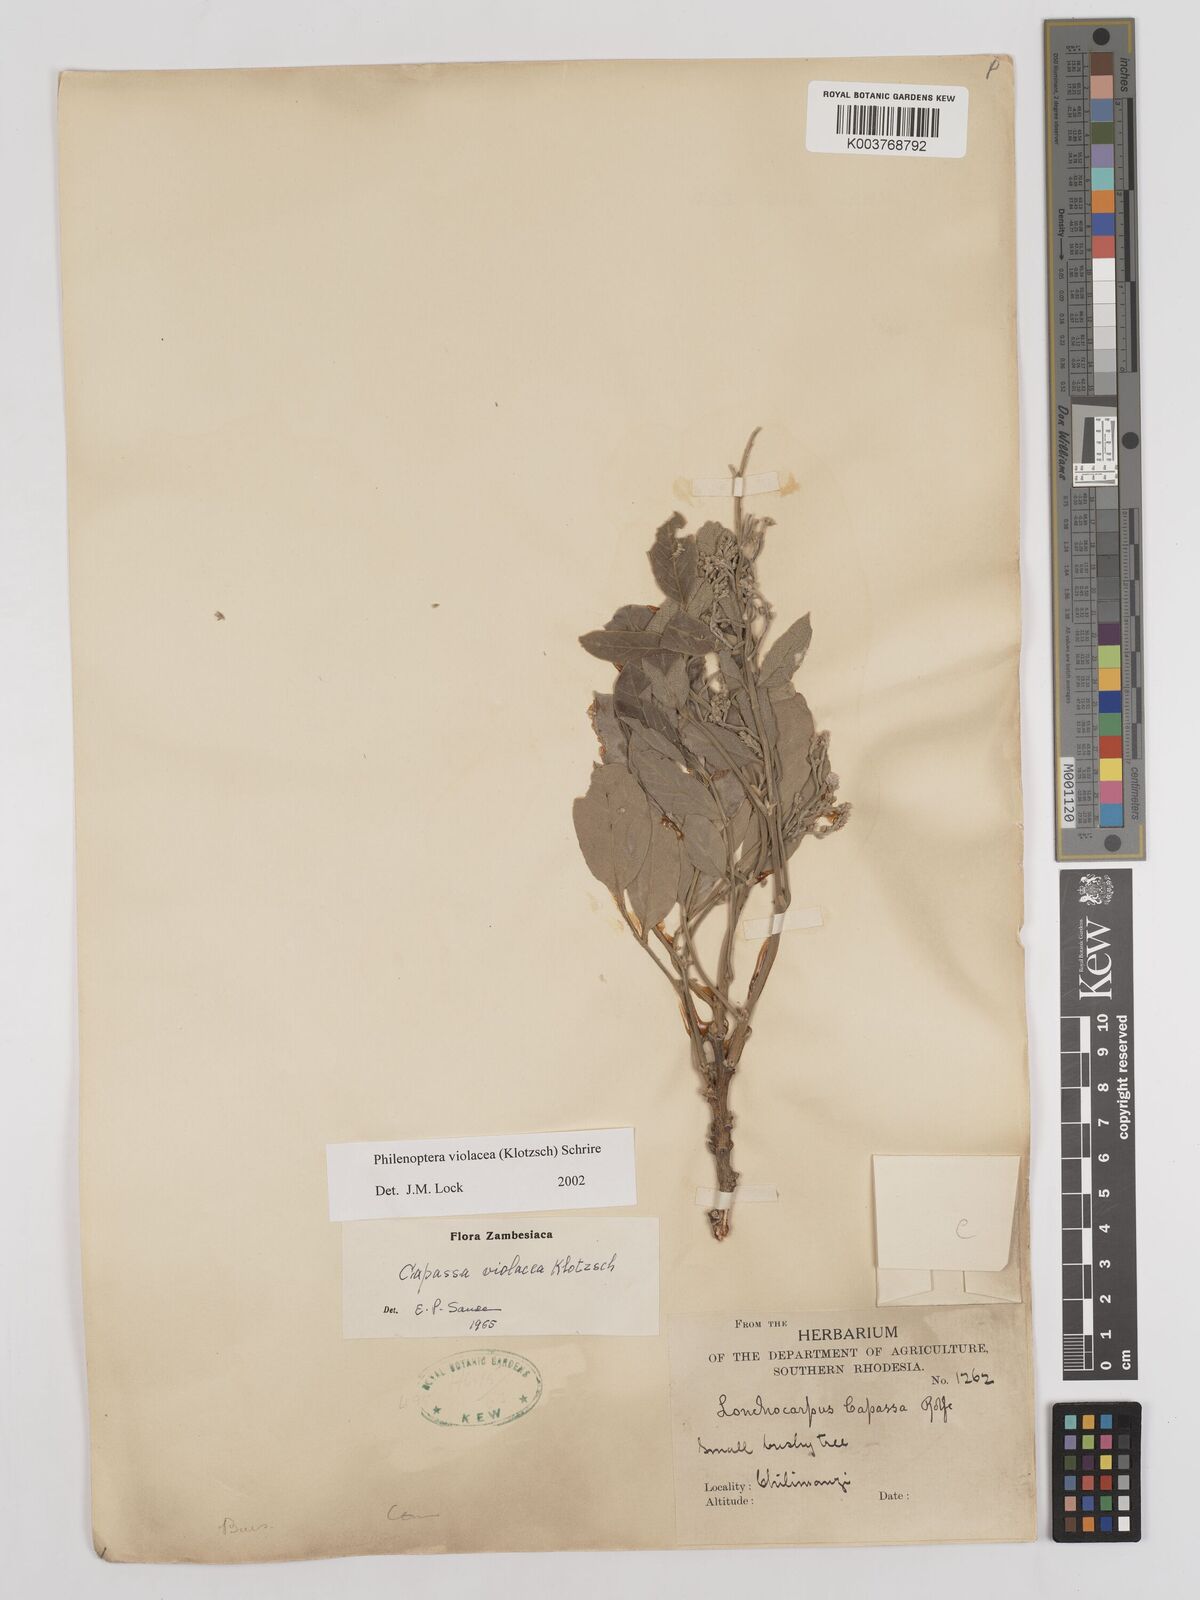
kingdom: Plantae
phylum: Tracheophyta
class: Magnoliopsida
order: Fabales
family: Fabaceae
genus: Philenoptera
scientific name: Philenoptera violacea
